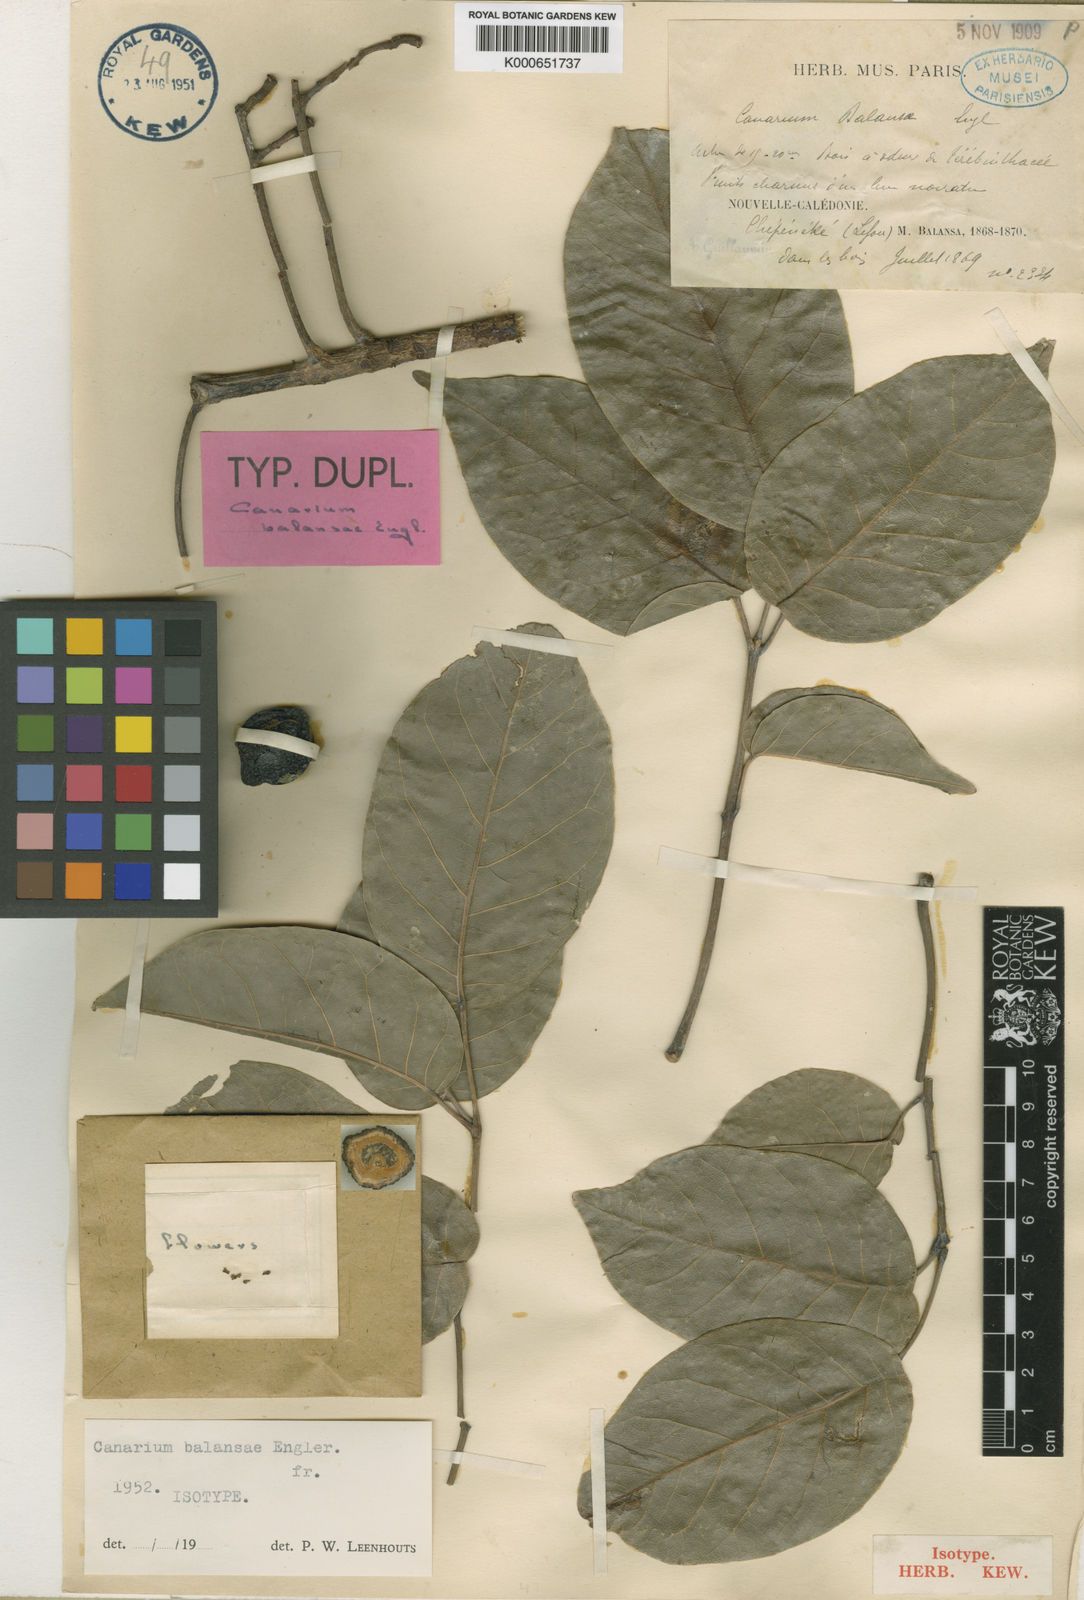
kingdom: Plantae
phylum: Tracheophyta
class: Magnoliopsida
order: Sapindales
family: Burseraceae
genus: Canarium
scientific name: Canarium balansae
